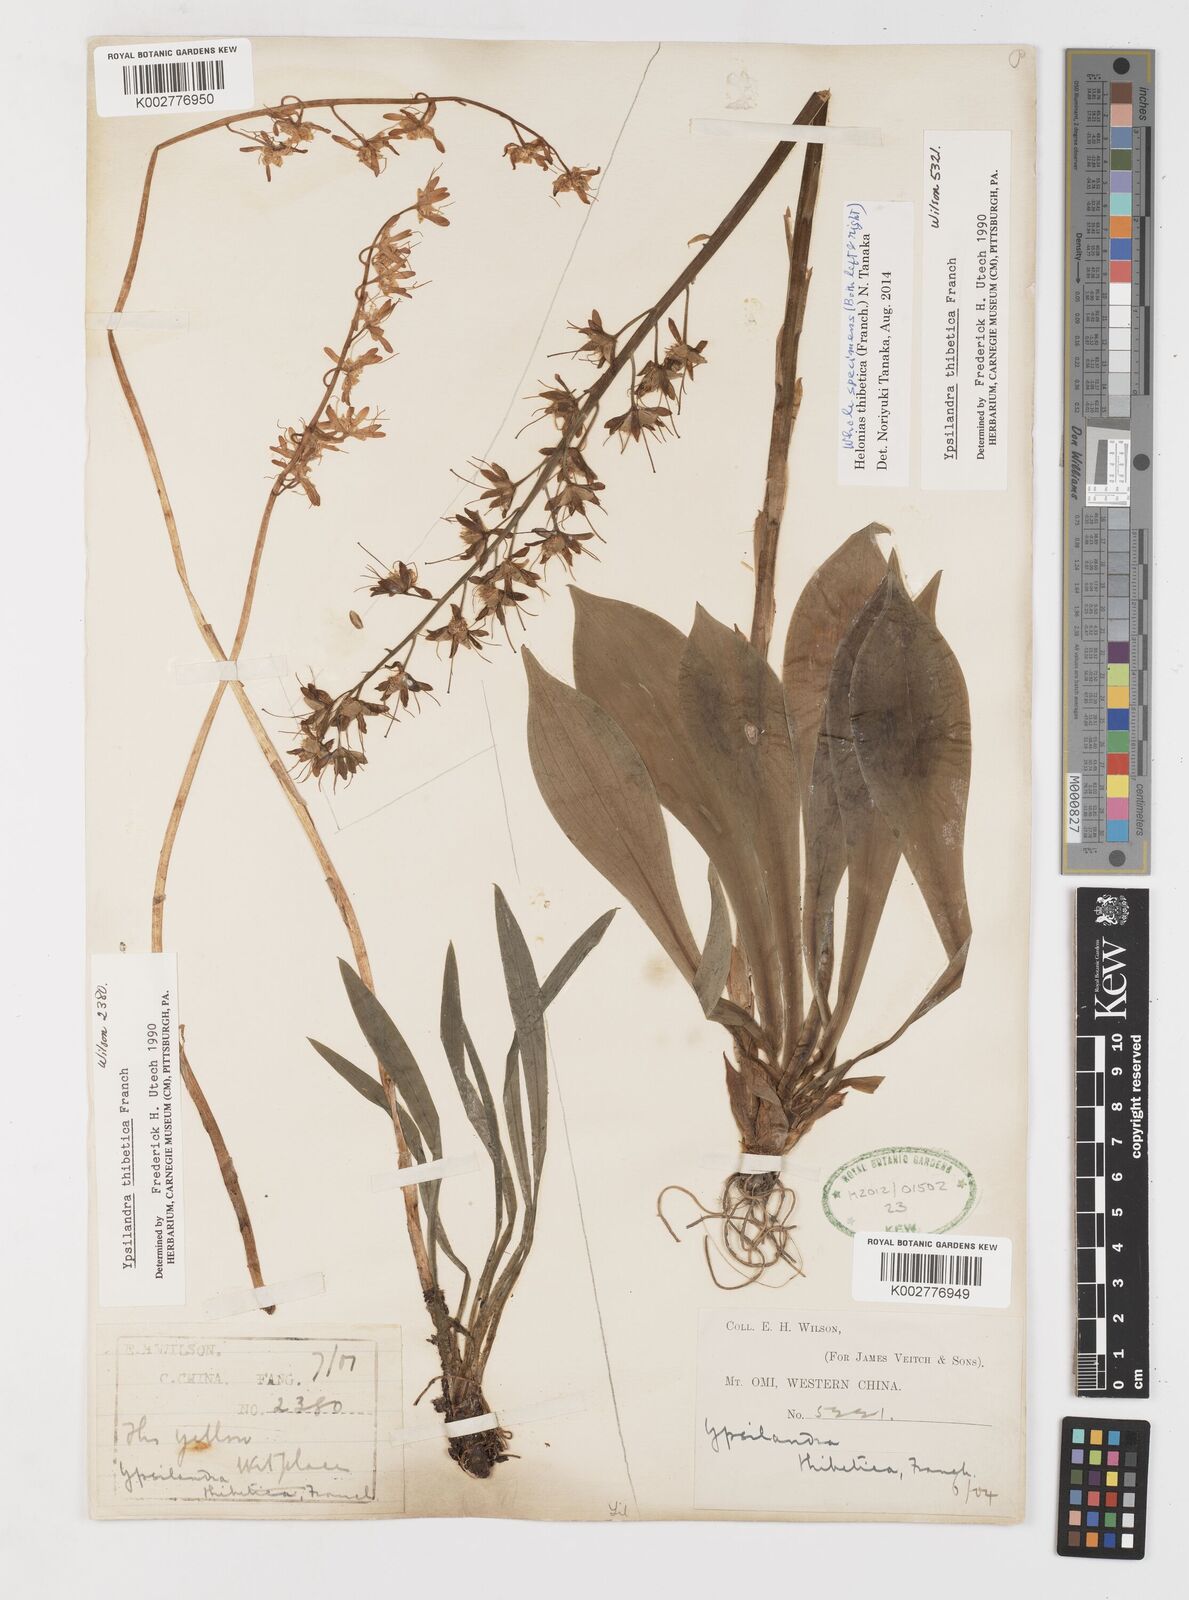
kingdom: Plantae
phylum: Tracheophyta
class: Liliopsida
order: Liliales
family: Melanthiaceae
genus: Helonias
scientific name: Helonias thibetica
